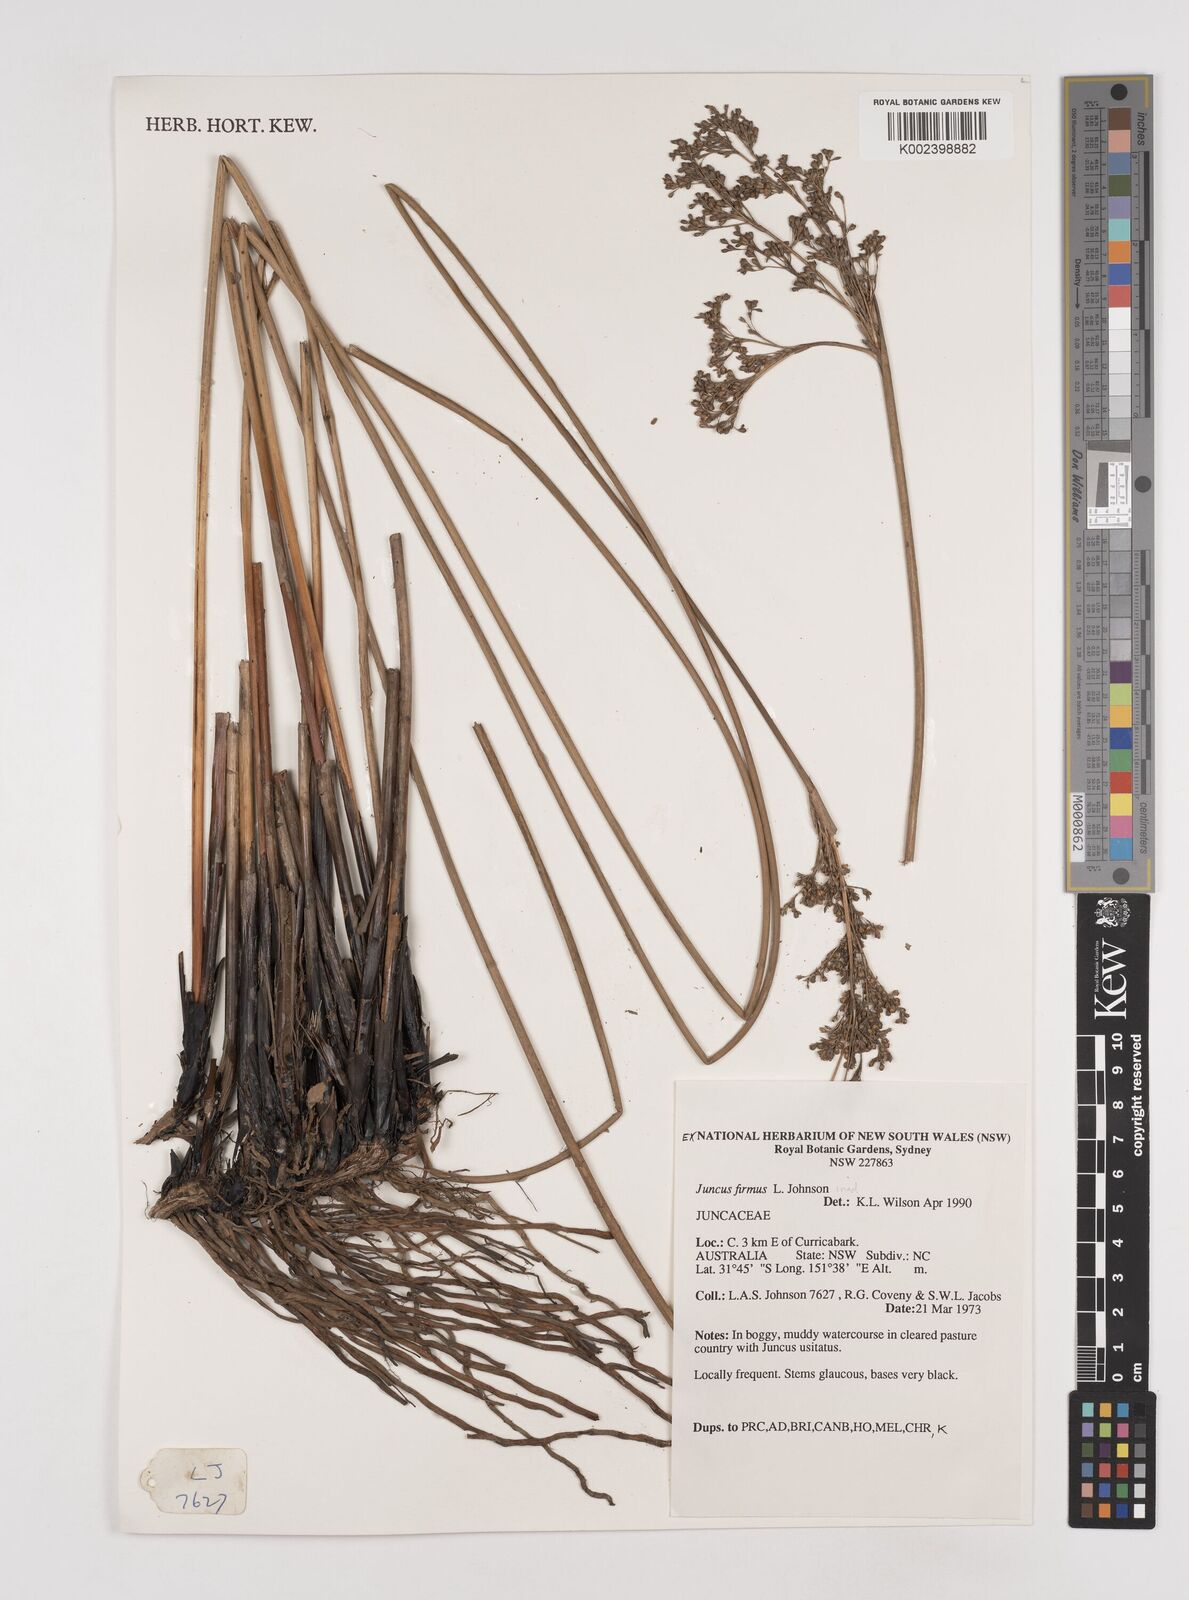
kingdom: Plantae
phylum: Tracheophyta
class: Liliopsida
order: Poales
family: Juncaceae
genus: Juncus
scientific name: Juncus firmus
